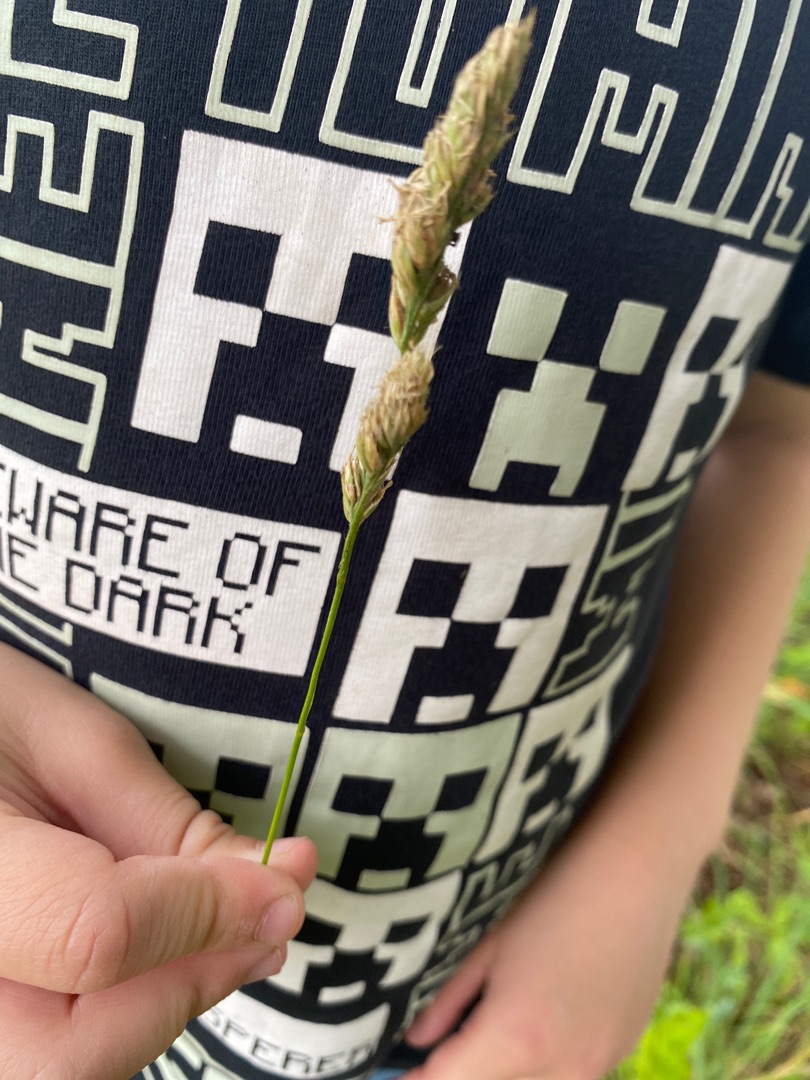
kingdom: Plantae
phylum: Tracheophyta
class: Liliopsida
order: Poales
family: Poaceae
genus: Dactylis
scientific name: Dactylis glomerata
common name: Almindelig hundegræs
